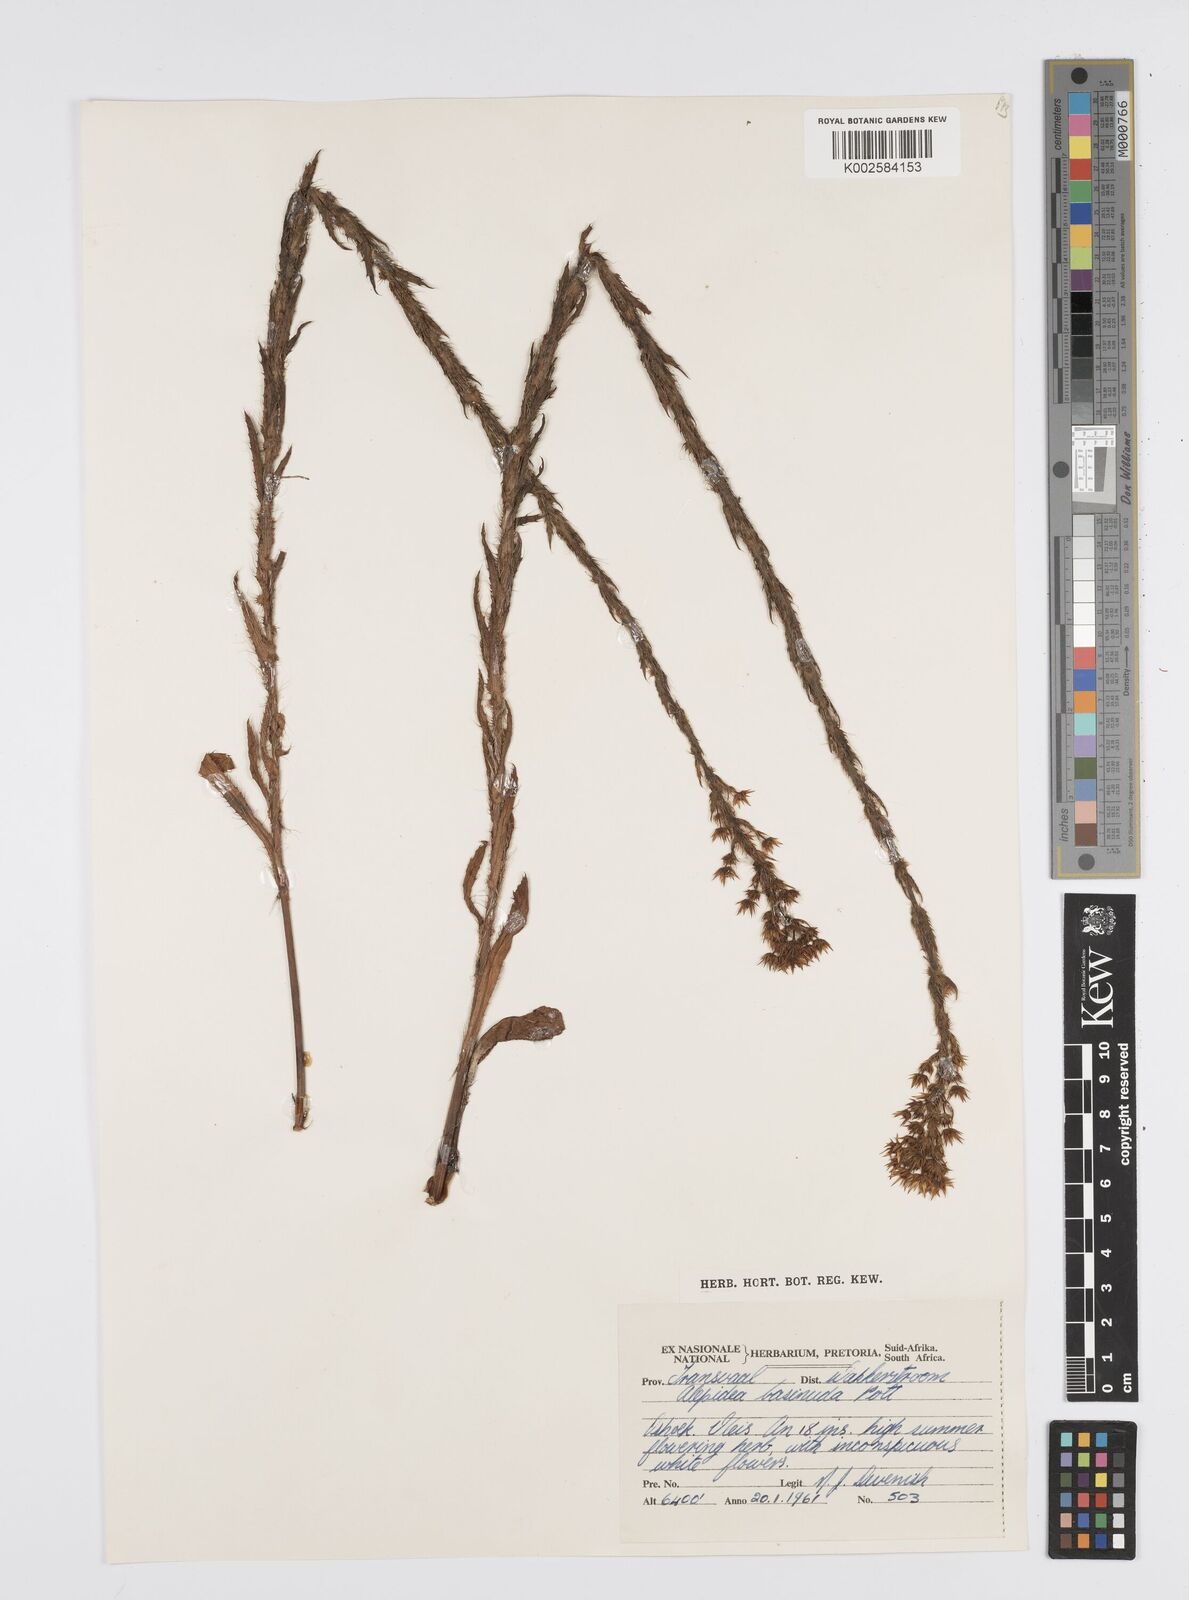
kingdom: Plantae
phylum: Tracheophyta
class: Magnoliopsida
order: Apiales
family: Apiaceae
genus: Alepidea
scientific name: Alepidea setifera
